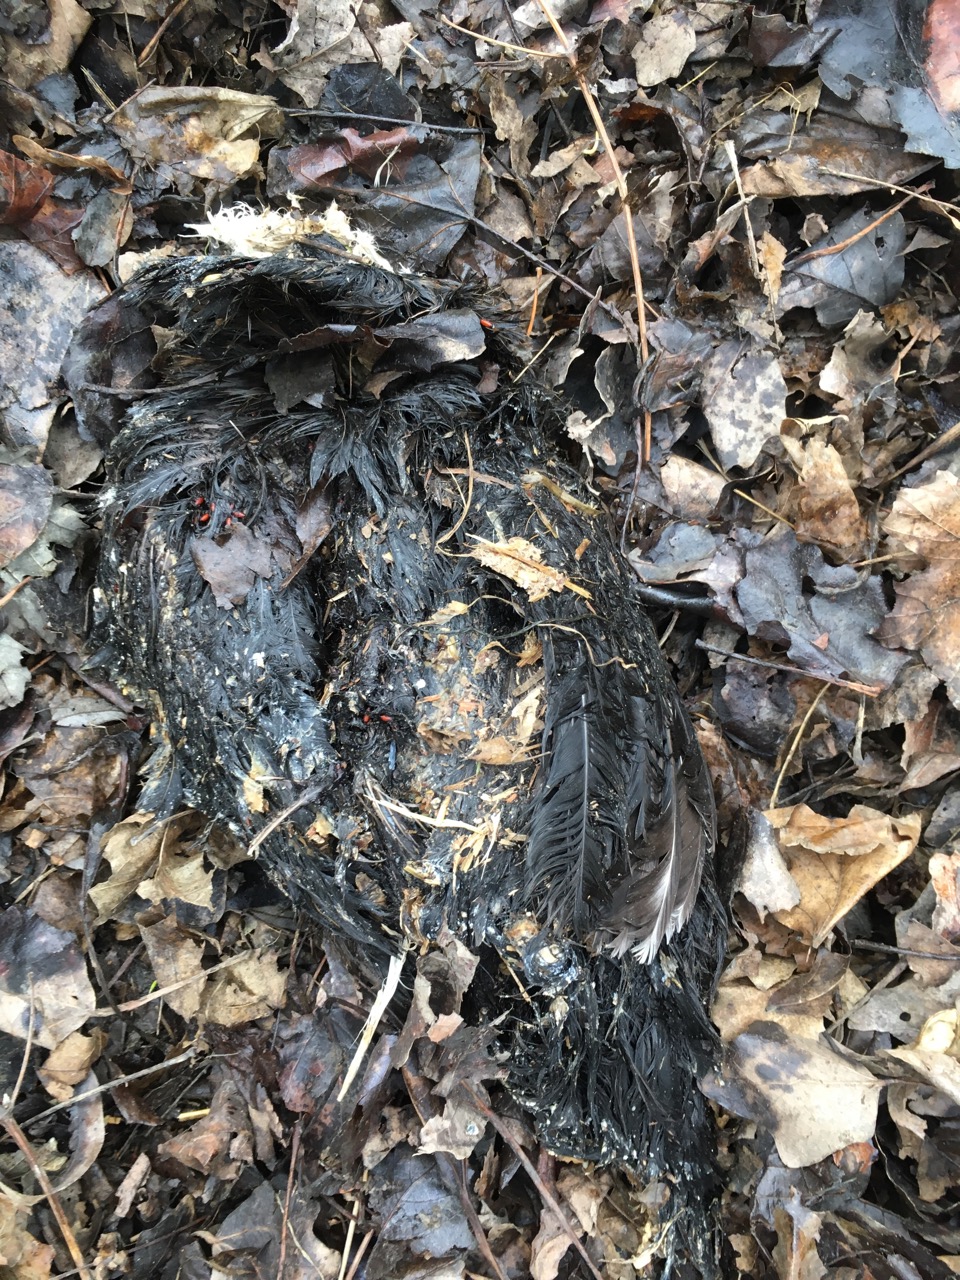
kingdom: Animalia
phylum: Chordata
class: Aves
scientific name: Aves
